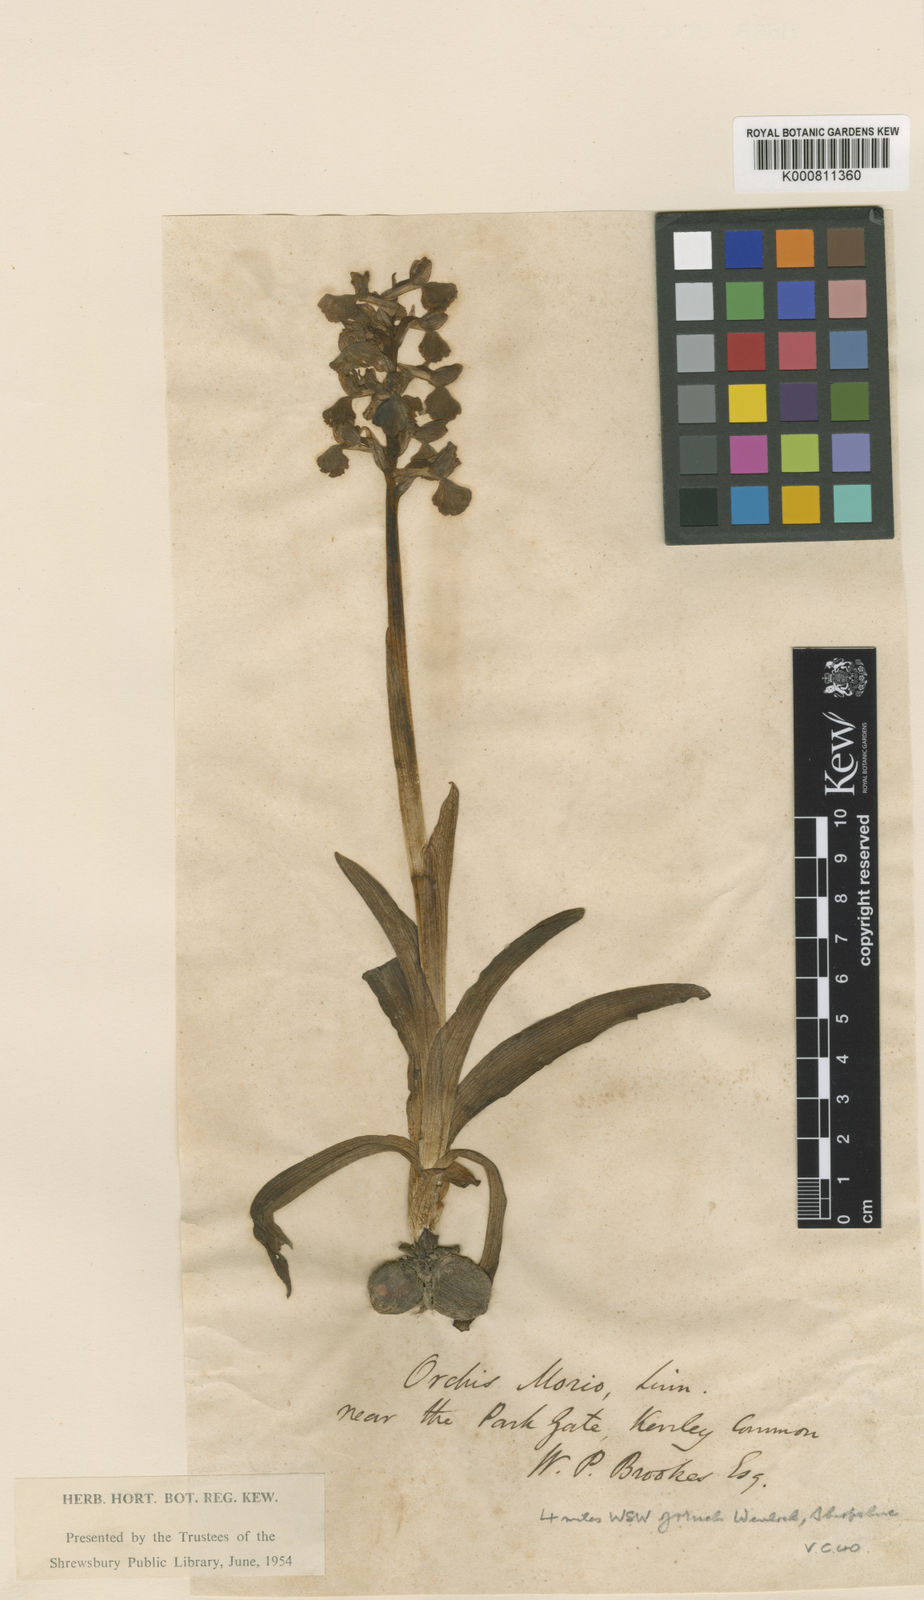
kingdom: Plantae
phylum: Tracheophyta
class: Liliopsida
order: Asparagales
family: Orchidaceae
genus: Anacamptis
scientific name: Anacamptis morio
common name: Green-winged orchid
